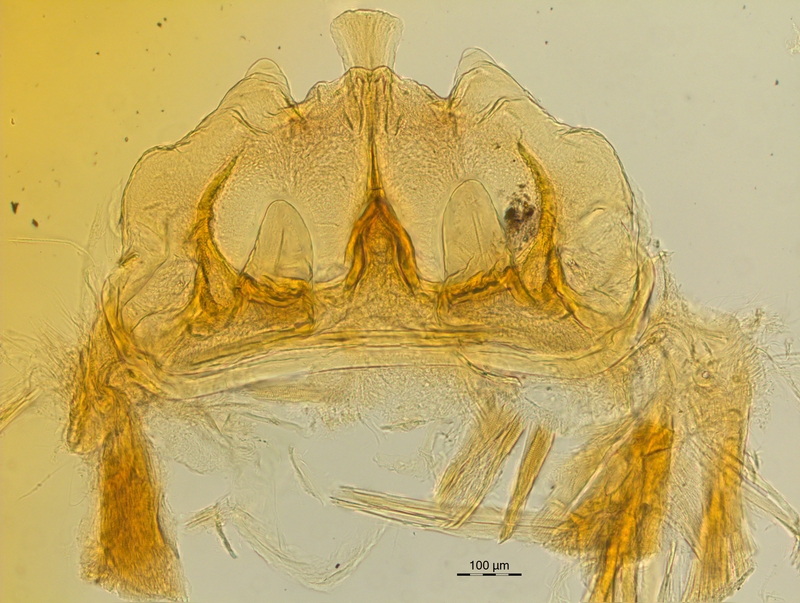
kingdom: Animalia
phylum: Arthropoda
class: Diplopoda
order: Chordeumatida
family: Craspedosomatidae
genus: Craspedosoma
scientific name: Craspedosoma rawlinsii
